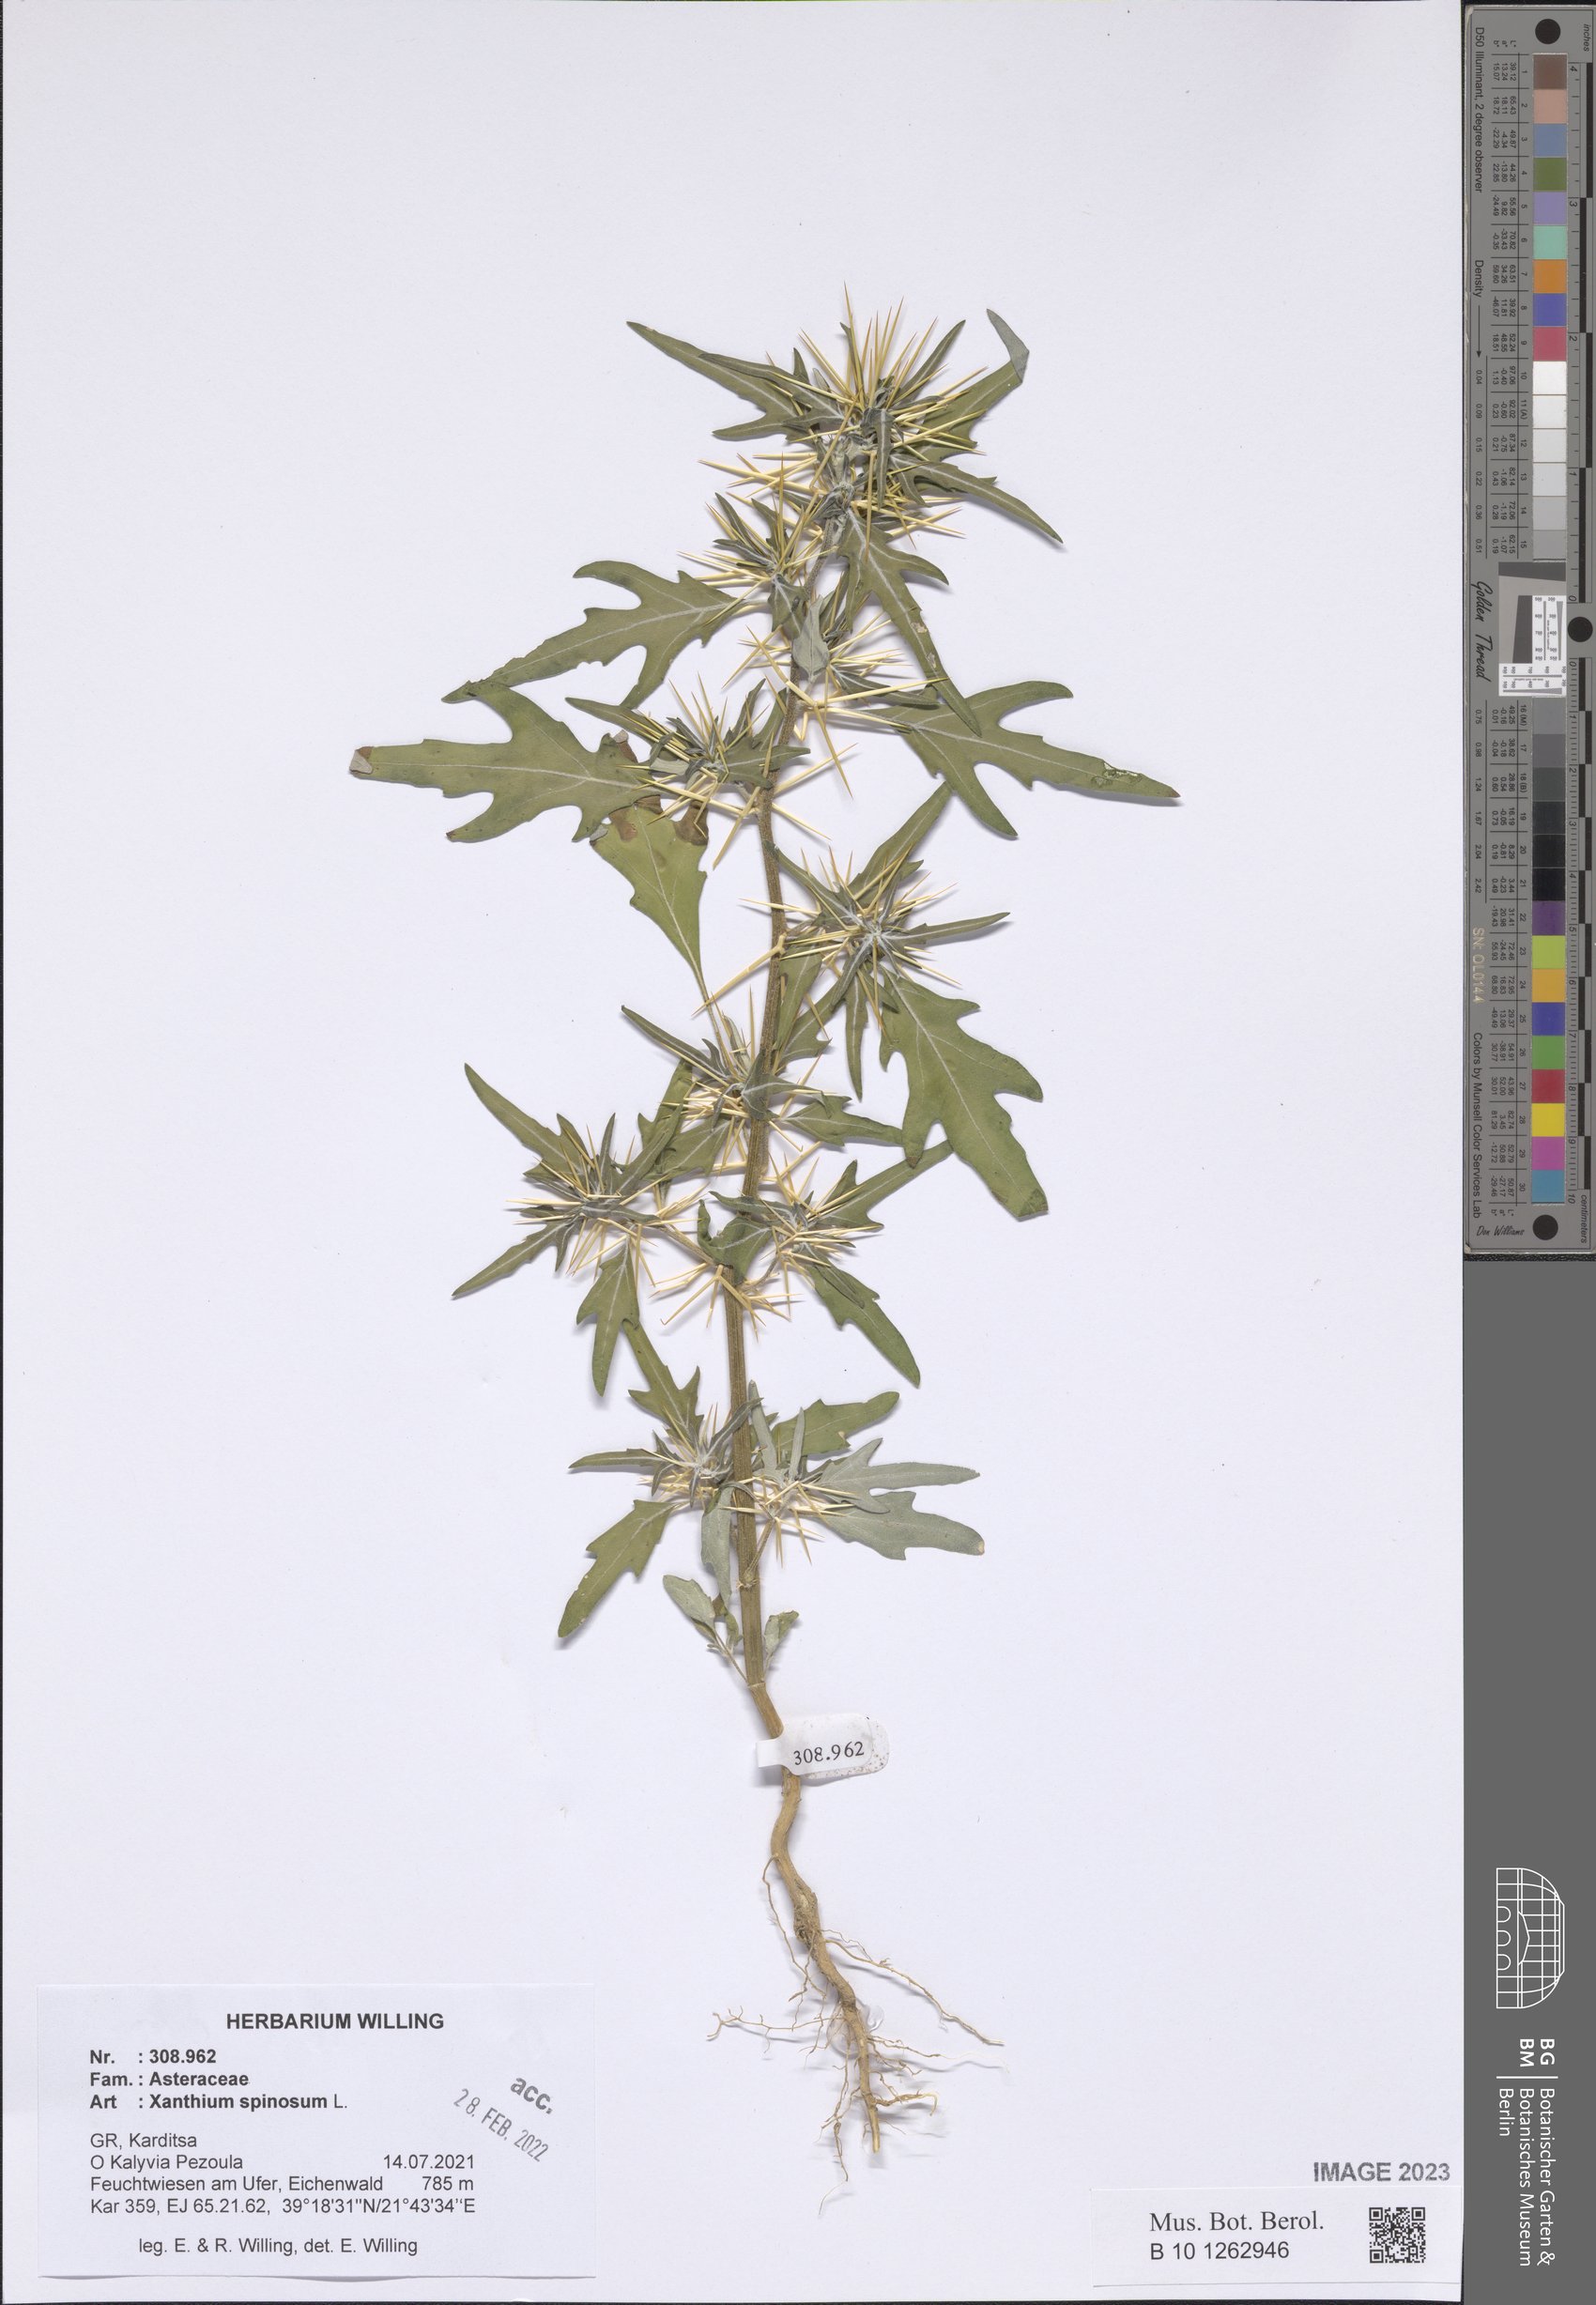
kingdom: Plantae
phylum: Tracheophyta
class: Magnoliopsida
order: Asterales
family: Asteraceae
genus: Xanthium
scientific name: Xanthium spinosum
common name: Spiny cocklebur
